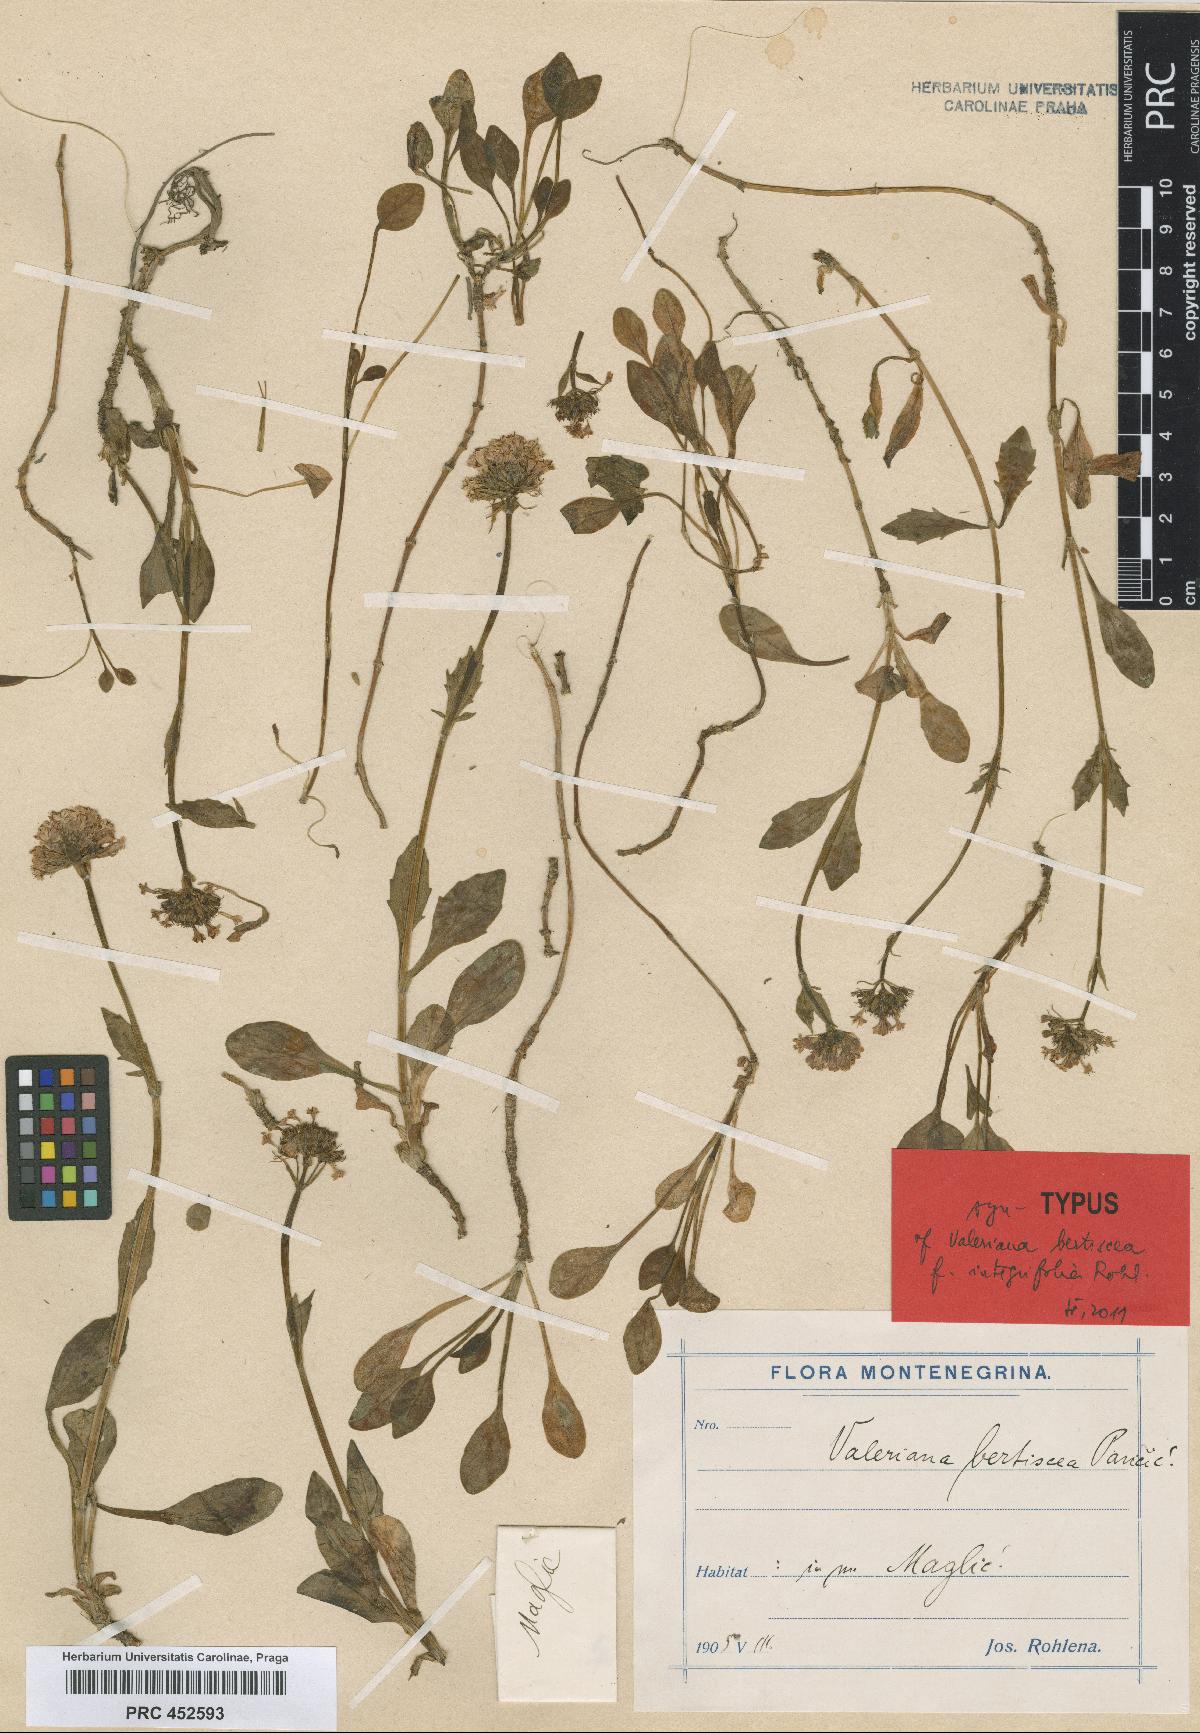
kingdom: Plantae
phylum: Tracheophyta
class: Magnoliopsida
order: Dipsacales
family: Caprifoliaceae
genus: Valeriana
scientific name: Valeriana bertiscea
